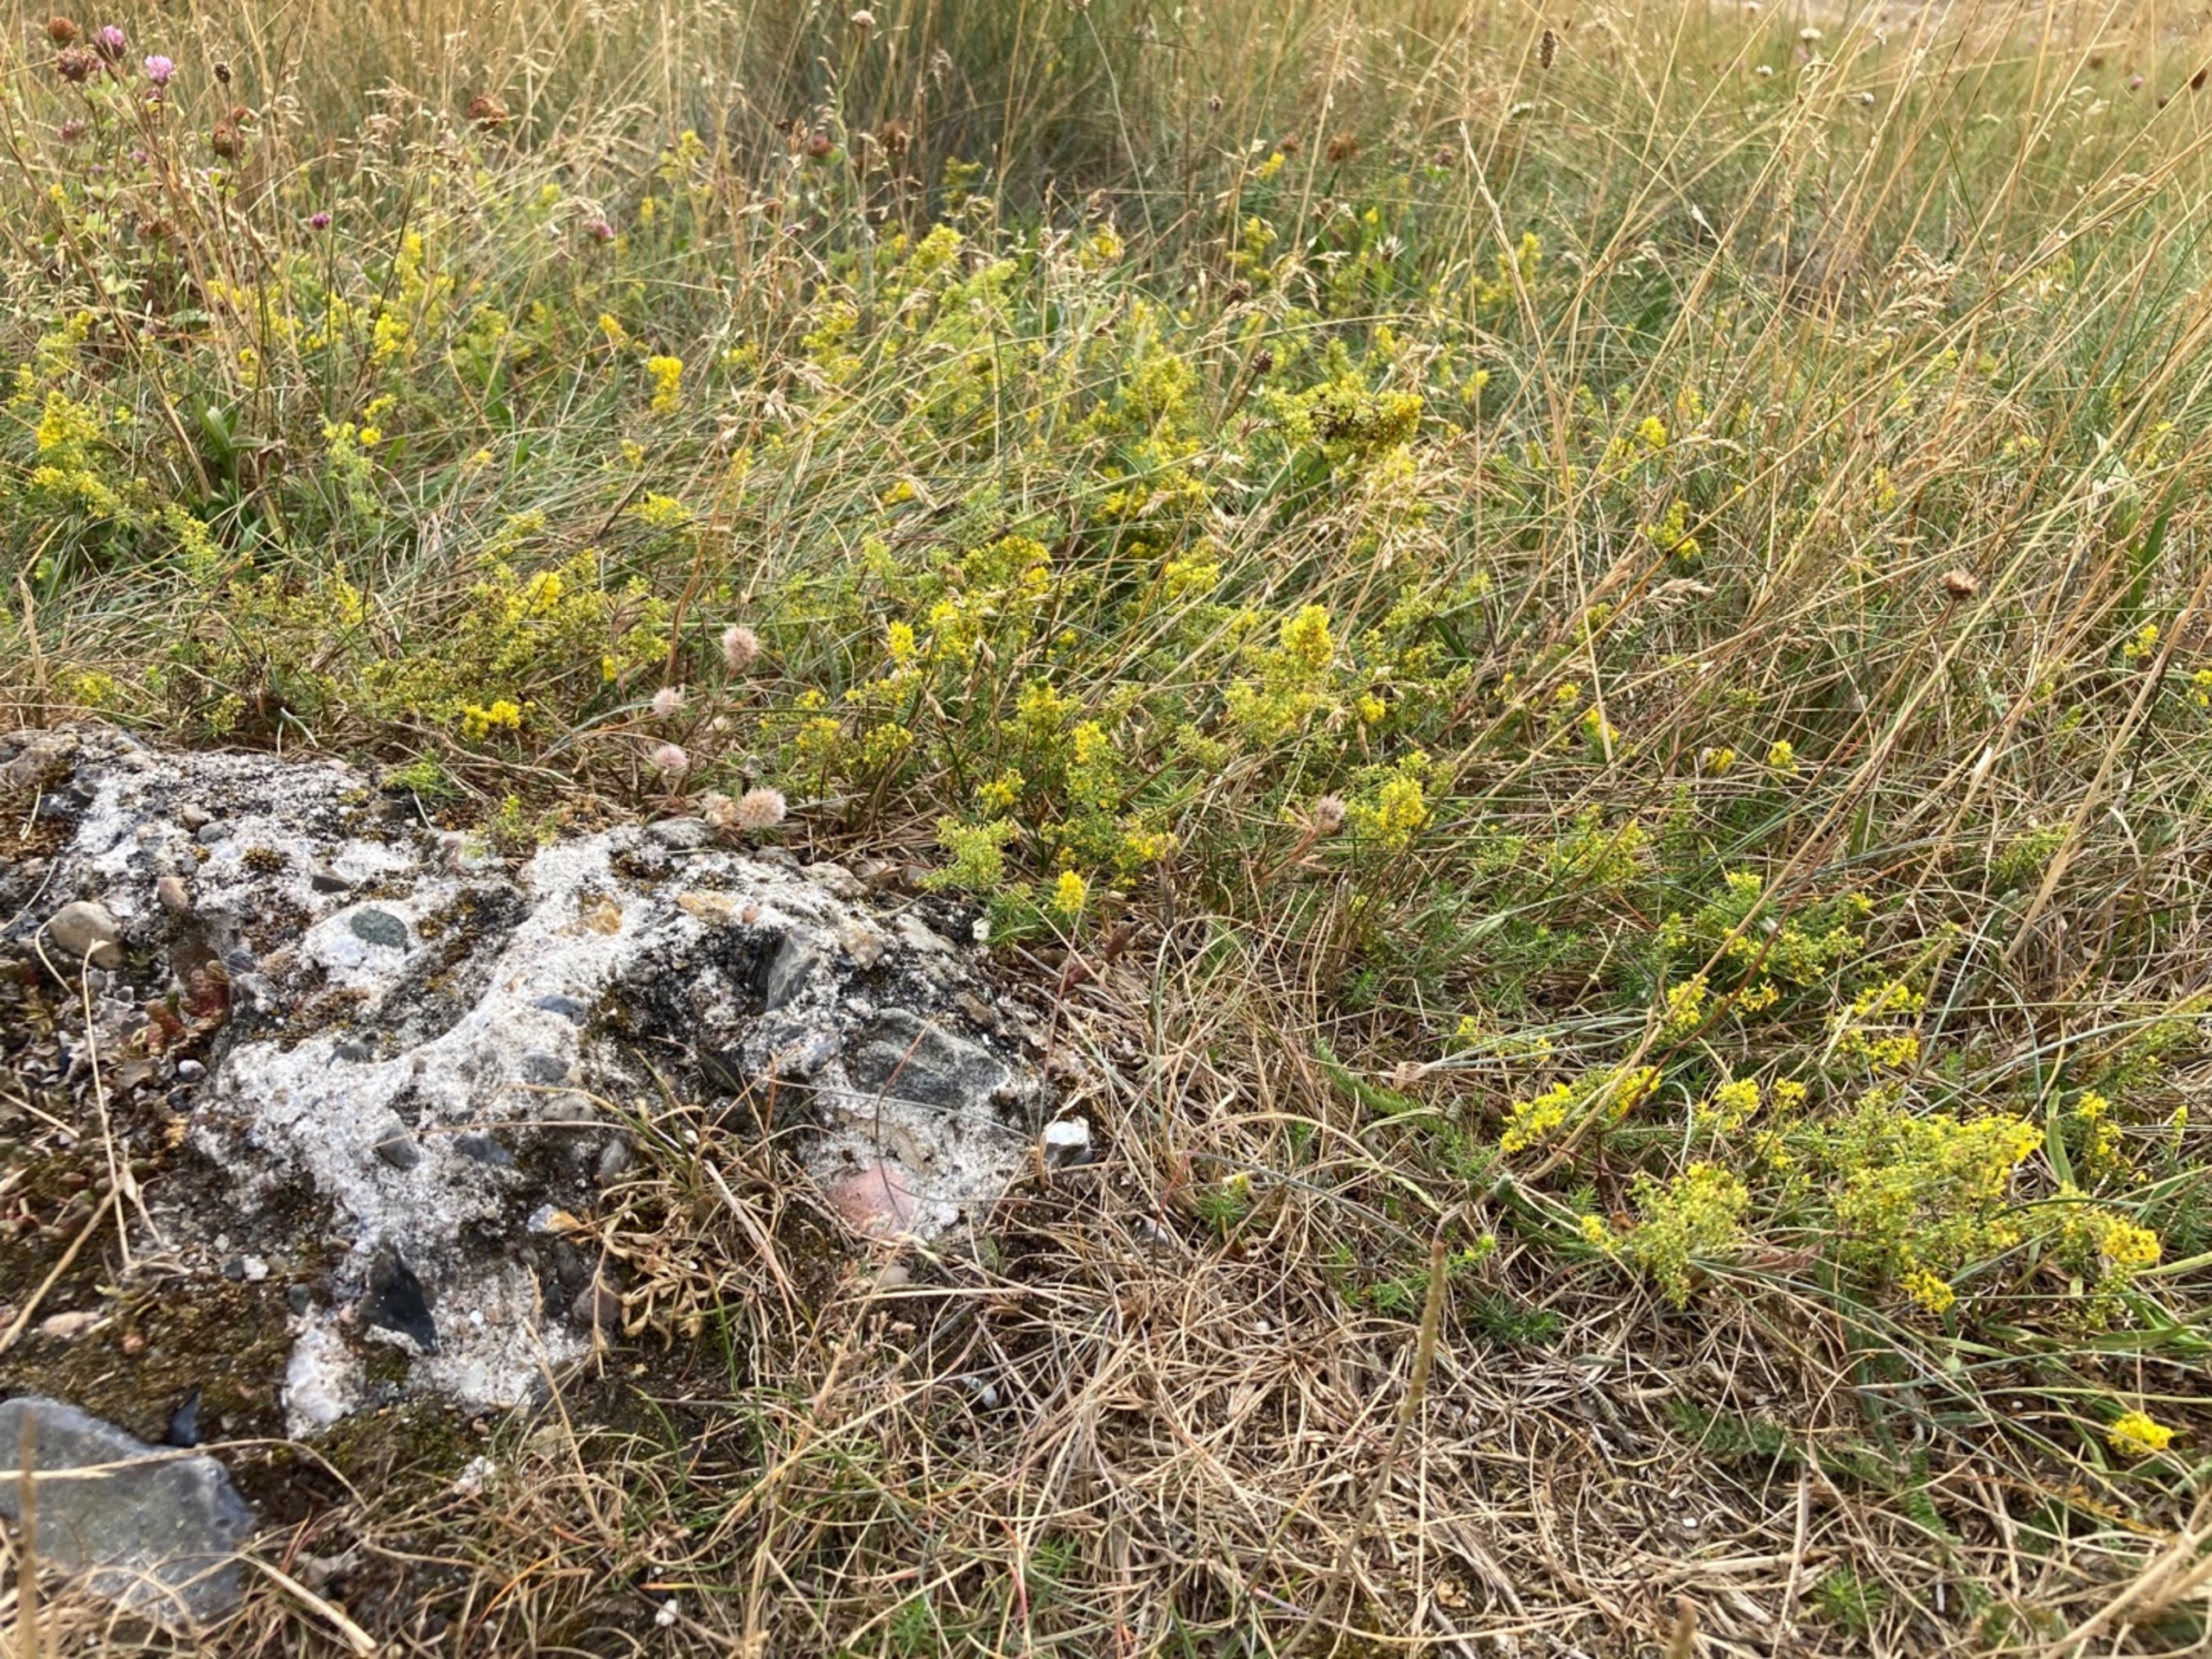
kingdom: Plantae
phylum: Tracheophyta
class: Magnoliopsida
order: Gentianales
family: Rubiaceae
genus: Galium
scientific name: Galium verum
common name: Gul snerre
